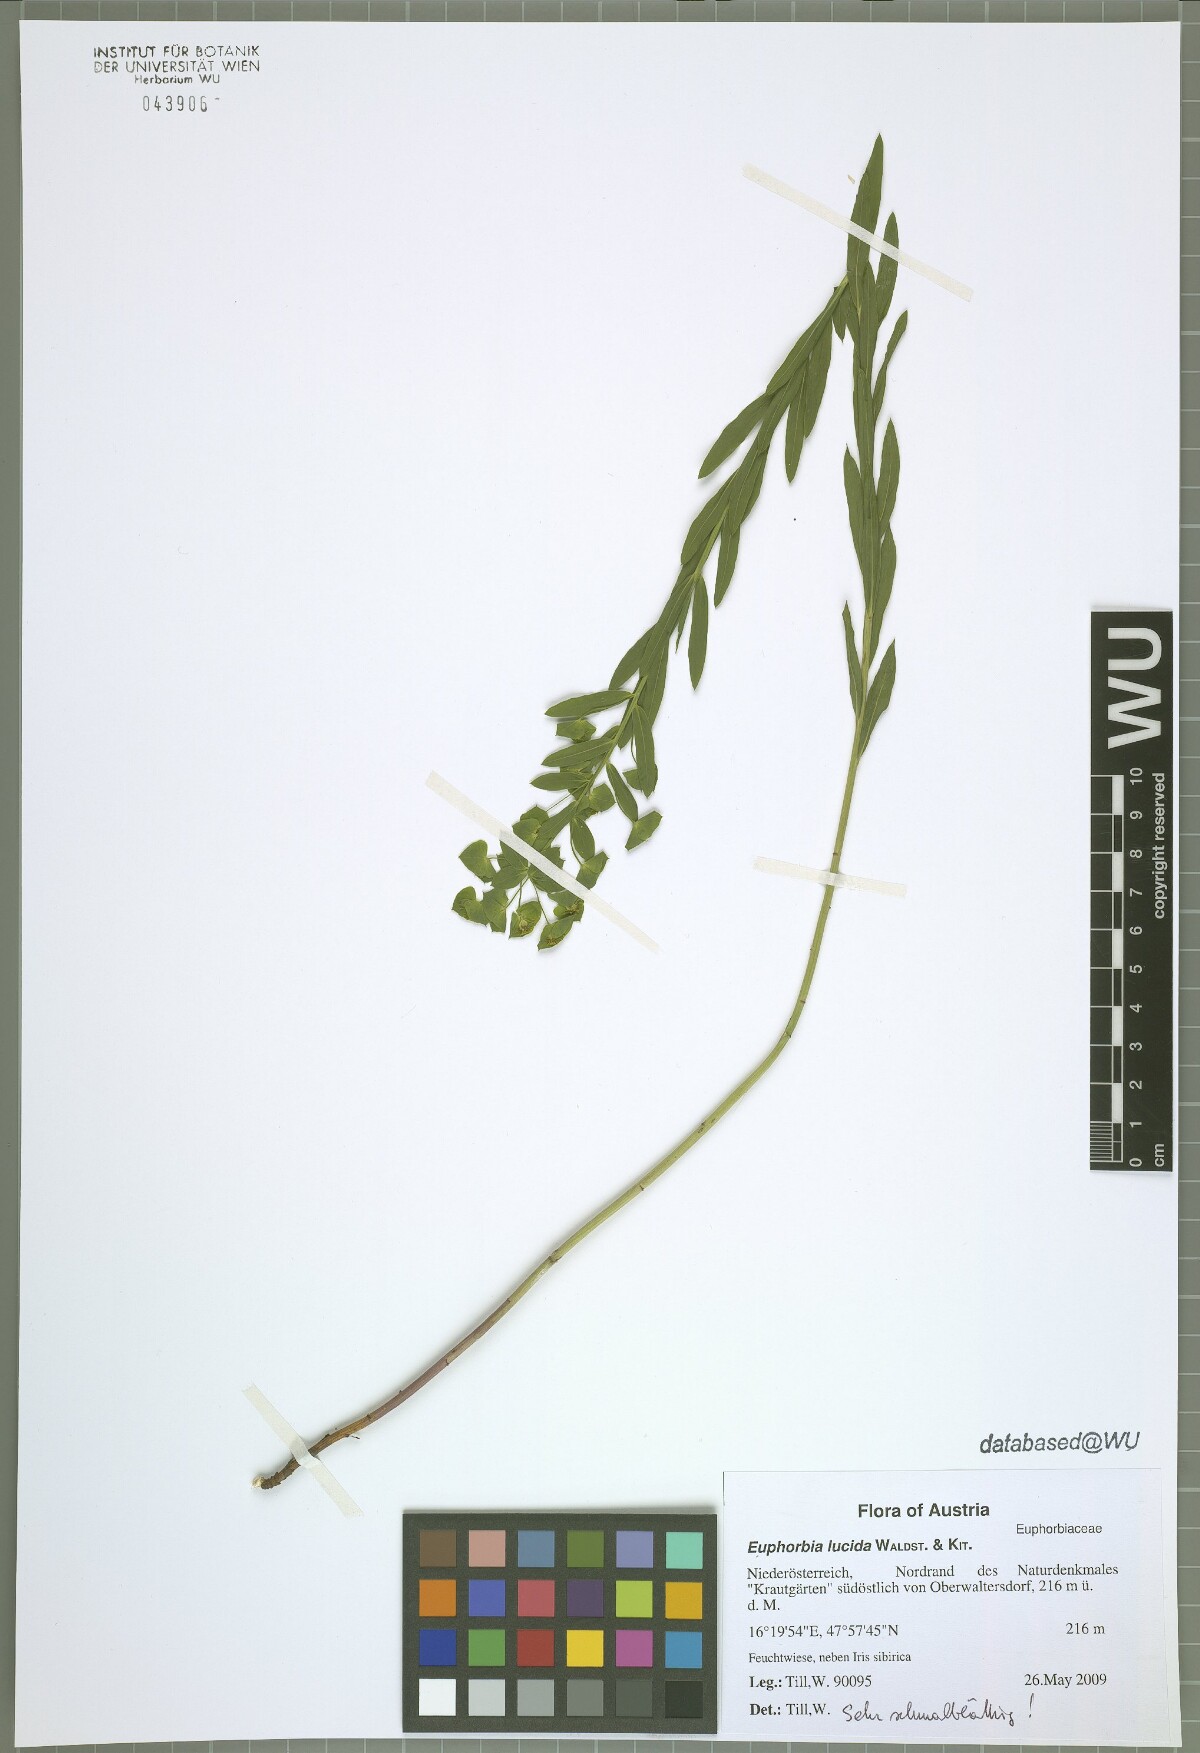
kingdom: Plantae
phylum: Tracheophyta
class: Magnoliopsida
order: Malpighiales
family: Euphorbiaceae
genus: Euphorbia
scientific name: Euphorbia lucida
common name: Shining spurge
